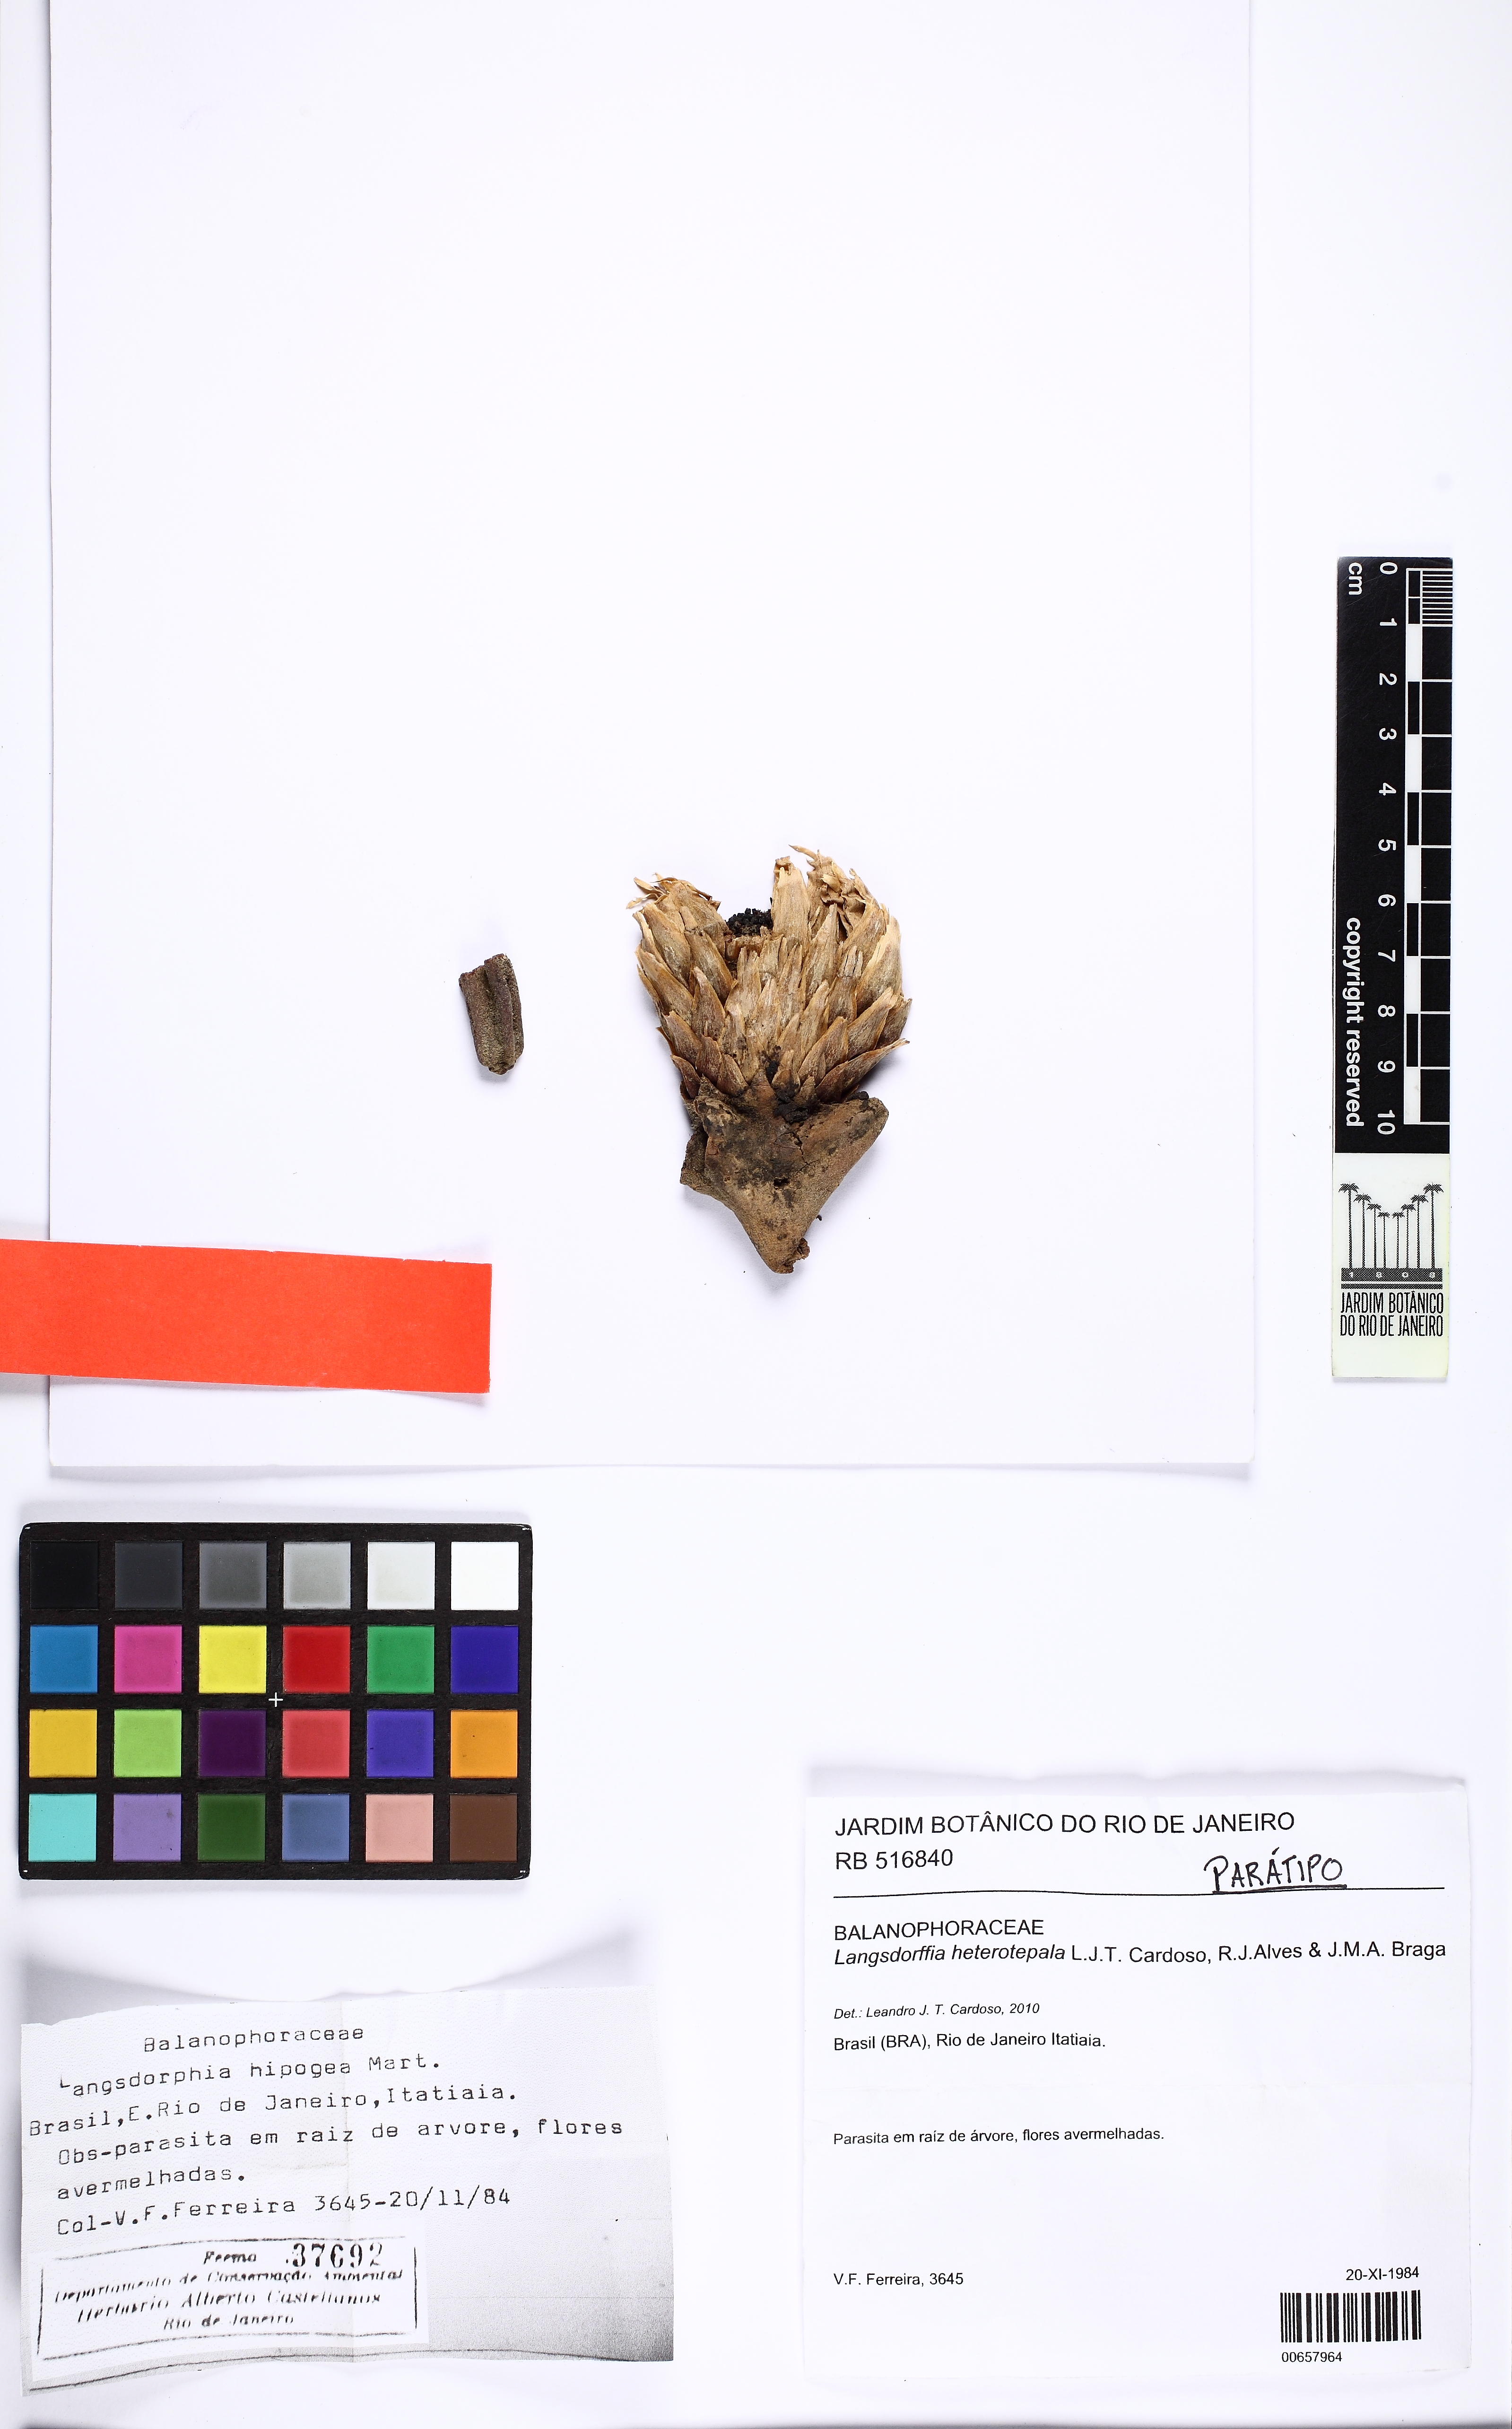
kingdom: Plantae
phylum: Tracheophyta
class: Magnoliopsida
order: Santalales
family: Balanophoraceae
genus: Langsdorffia
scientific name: Langsdorffia heterotepala
